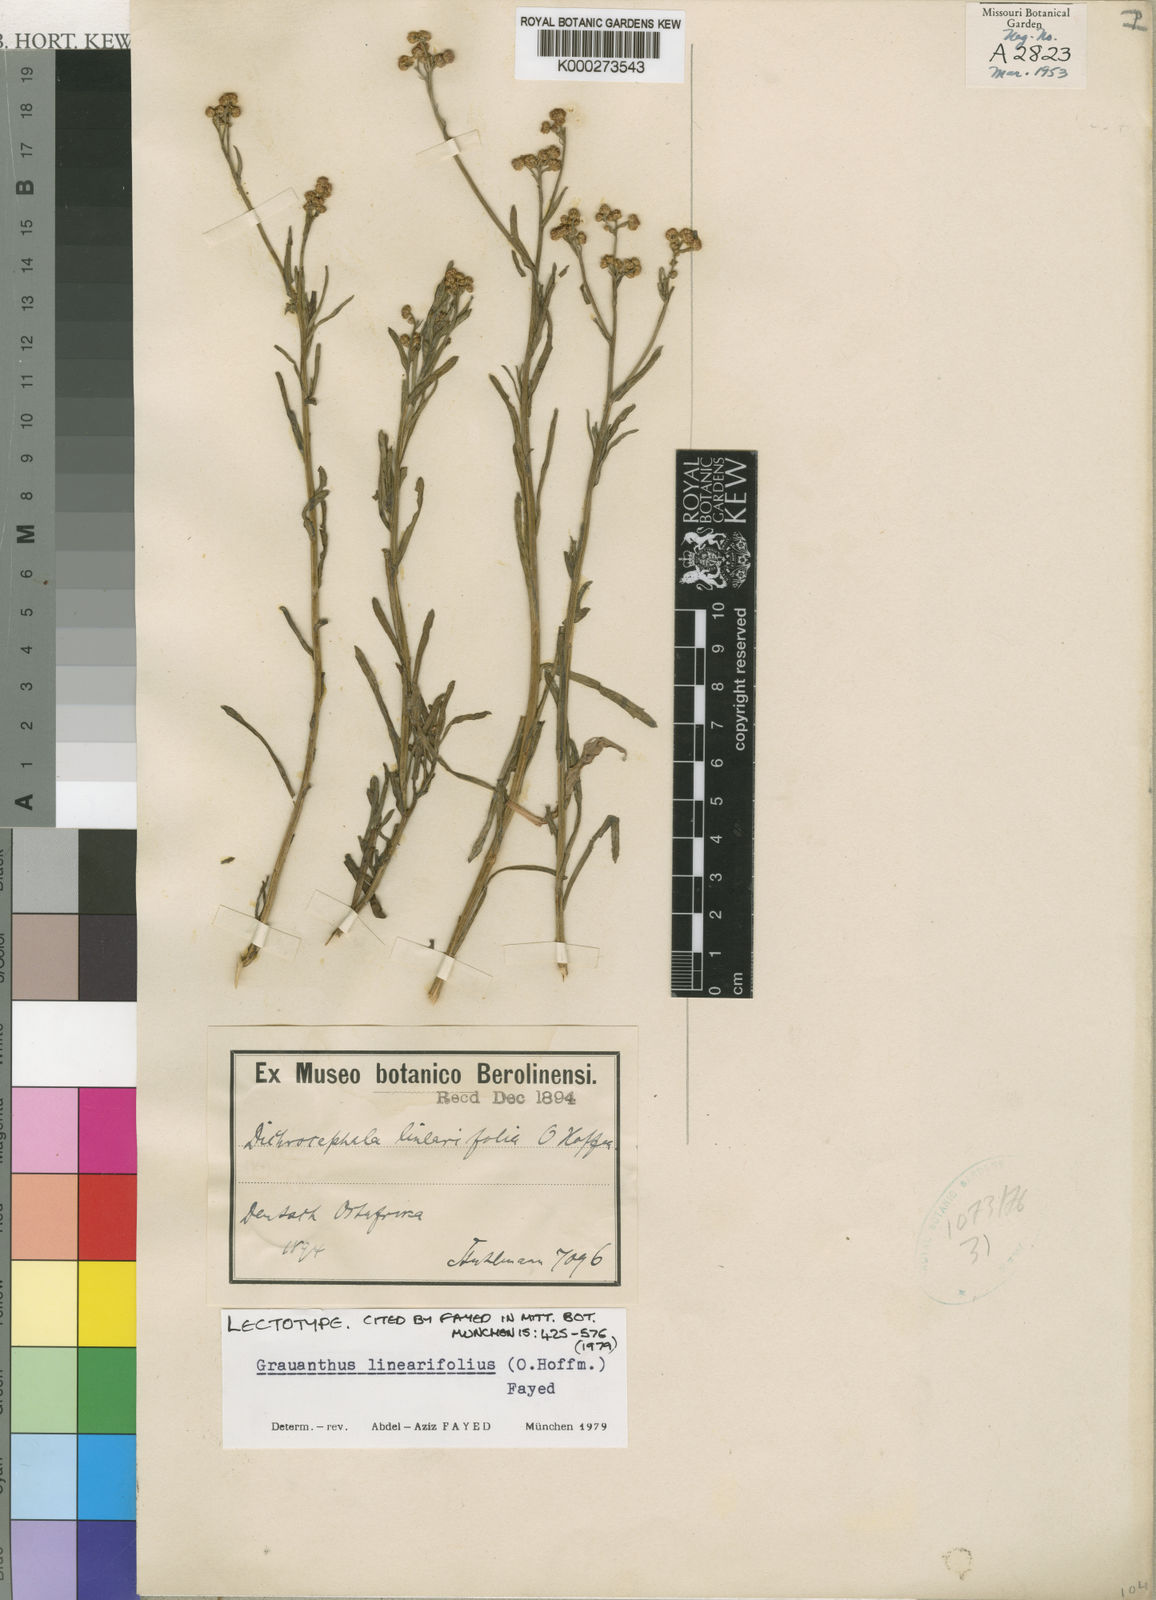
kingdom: Plantae
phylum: Tracheophyta
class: Magnoliopsida
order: Asterales
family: Asteraceae
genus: Grauanthus
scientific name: Grauanthus linearifolius
